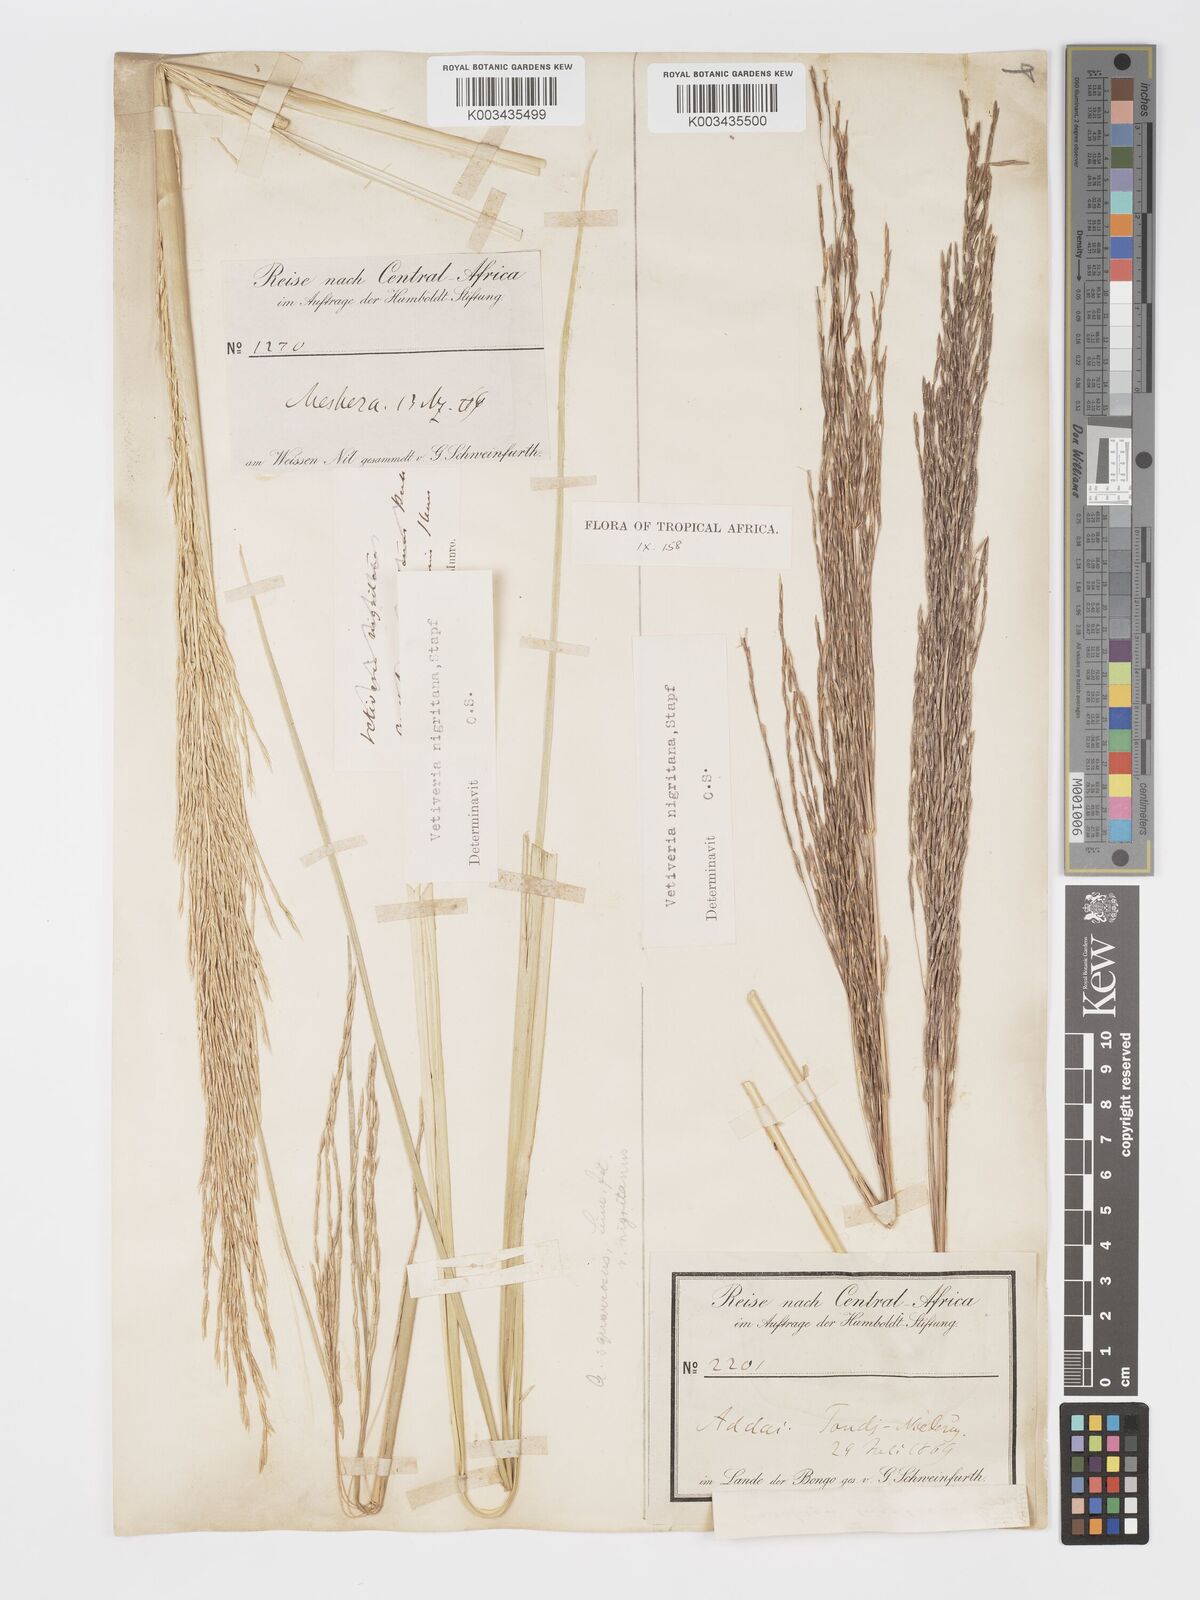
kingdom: Plantae
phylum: Tracheophyta
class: Liliopsida
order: Poales
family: Poaceae
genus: Chrysopogon
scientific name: Chrysopogon nigritanus
